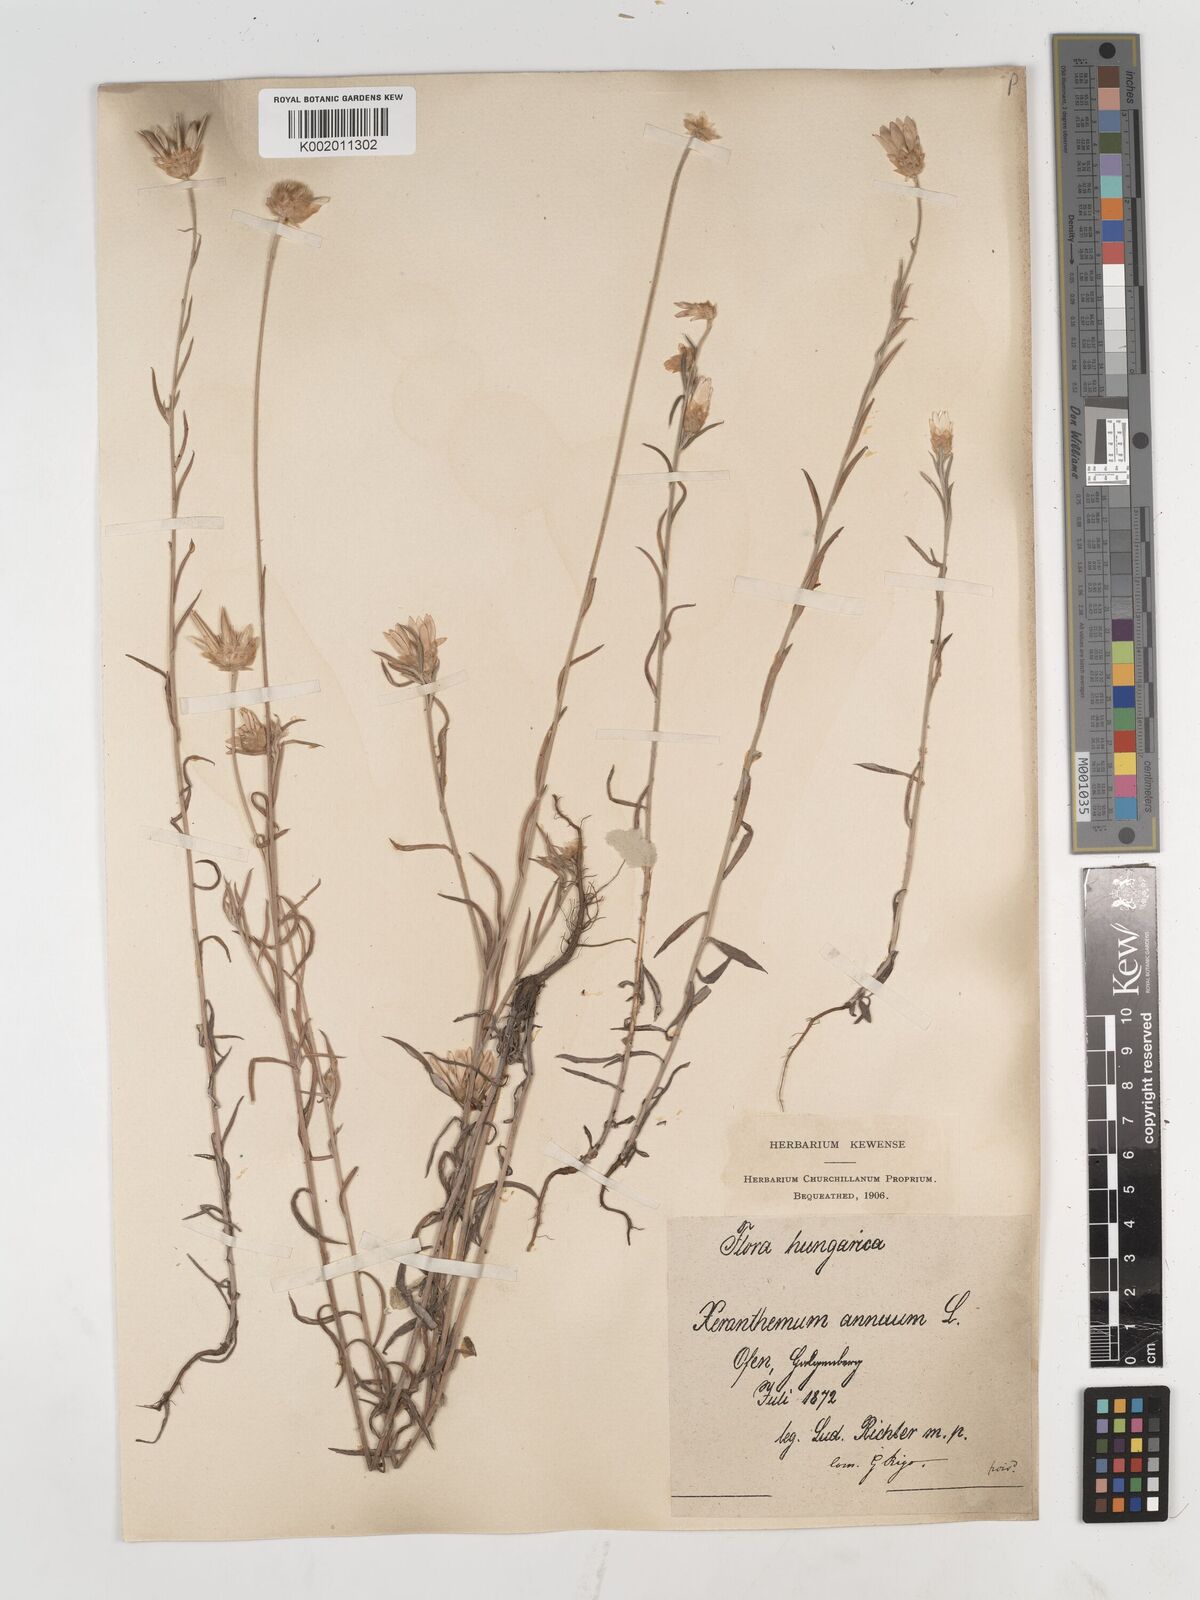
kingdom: Plantae
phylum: Tracheophyta
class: Magnoliopsida
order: Asterales
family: Asteraceae
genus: Xeranthemum
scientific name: Xeranthemum annuum
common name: Immortelle
